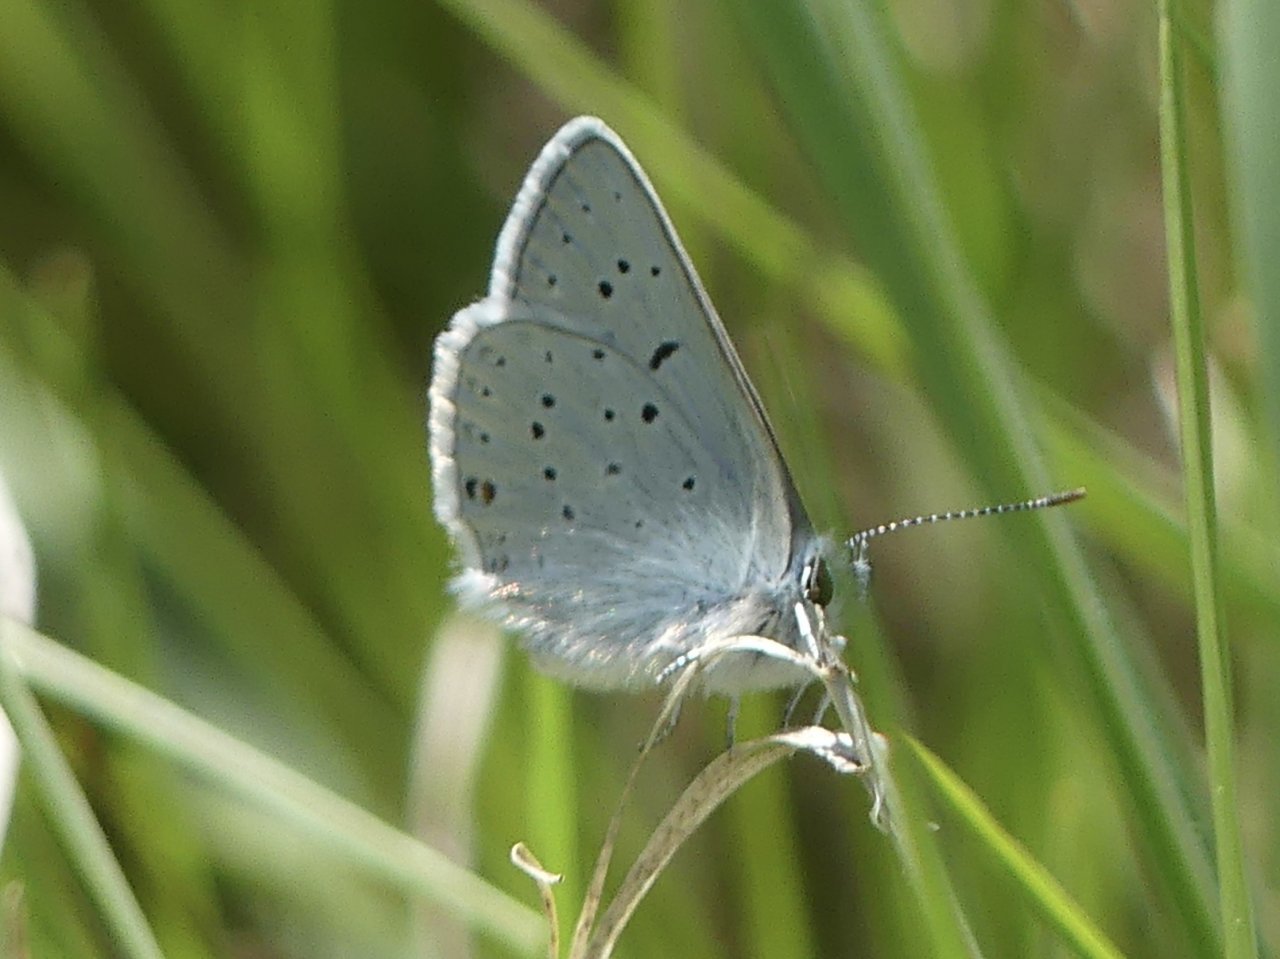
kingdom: Animalia
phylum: Arthropoda
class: Insecta
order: Lepidoptera
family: Lycaenidae
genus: Elkalyce
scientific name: Elkalyce amyntula
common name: Western Tailed-Blue
